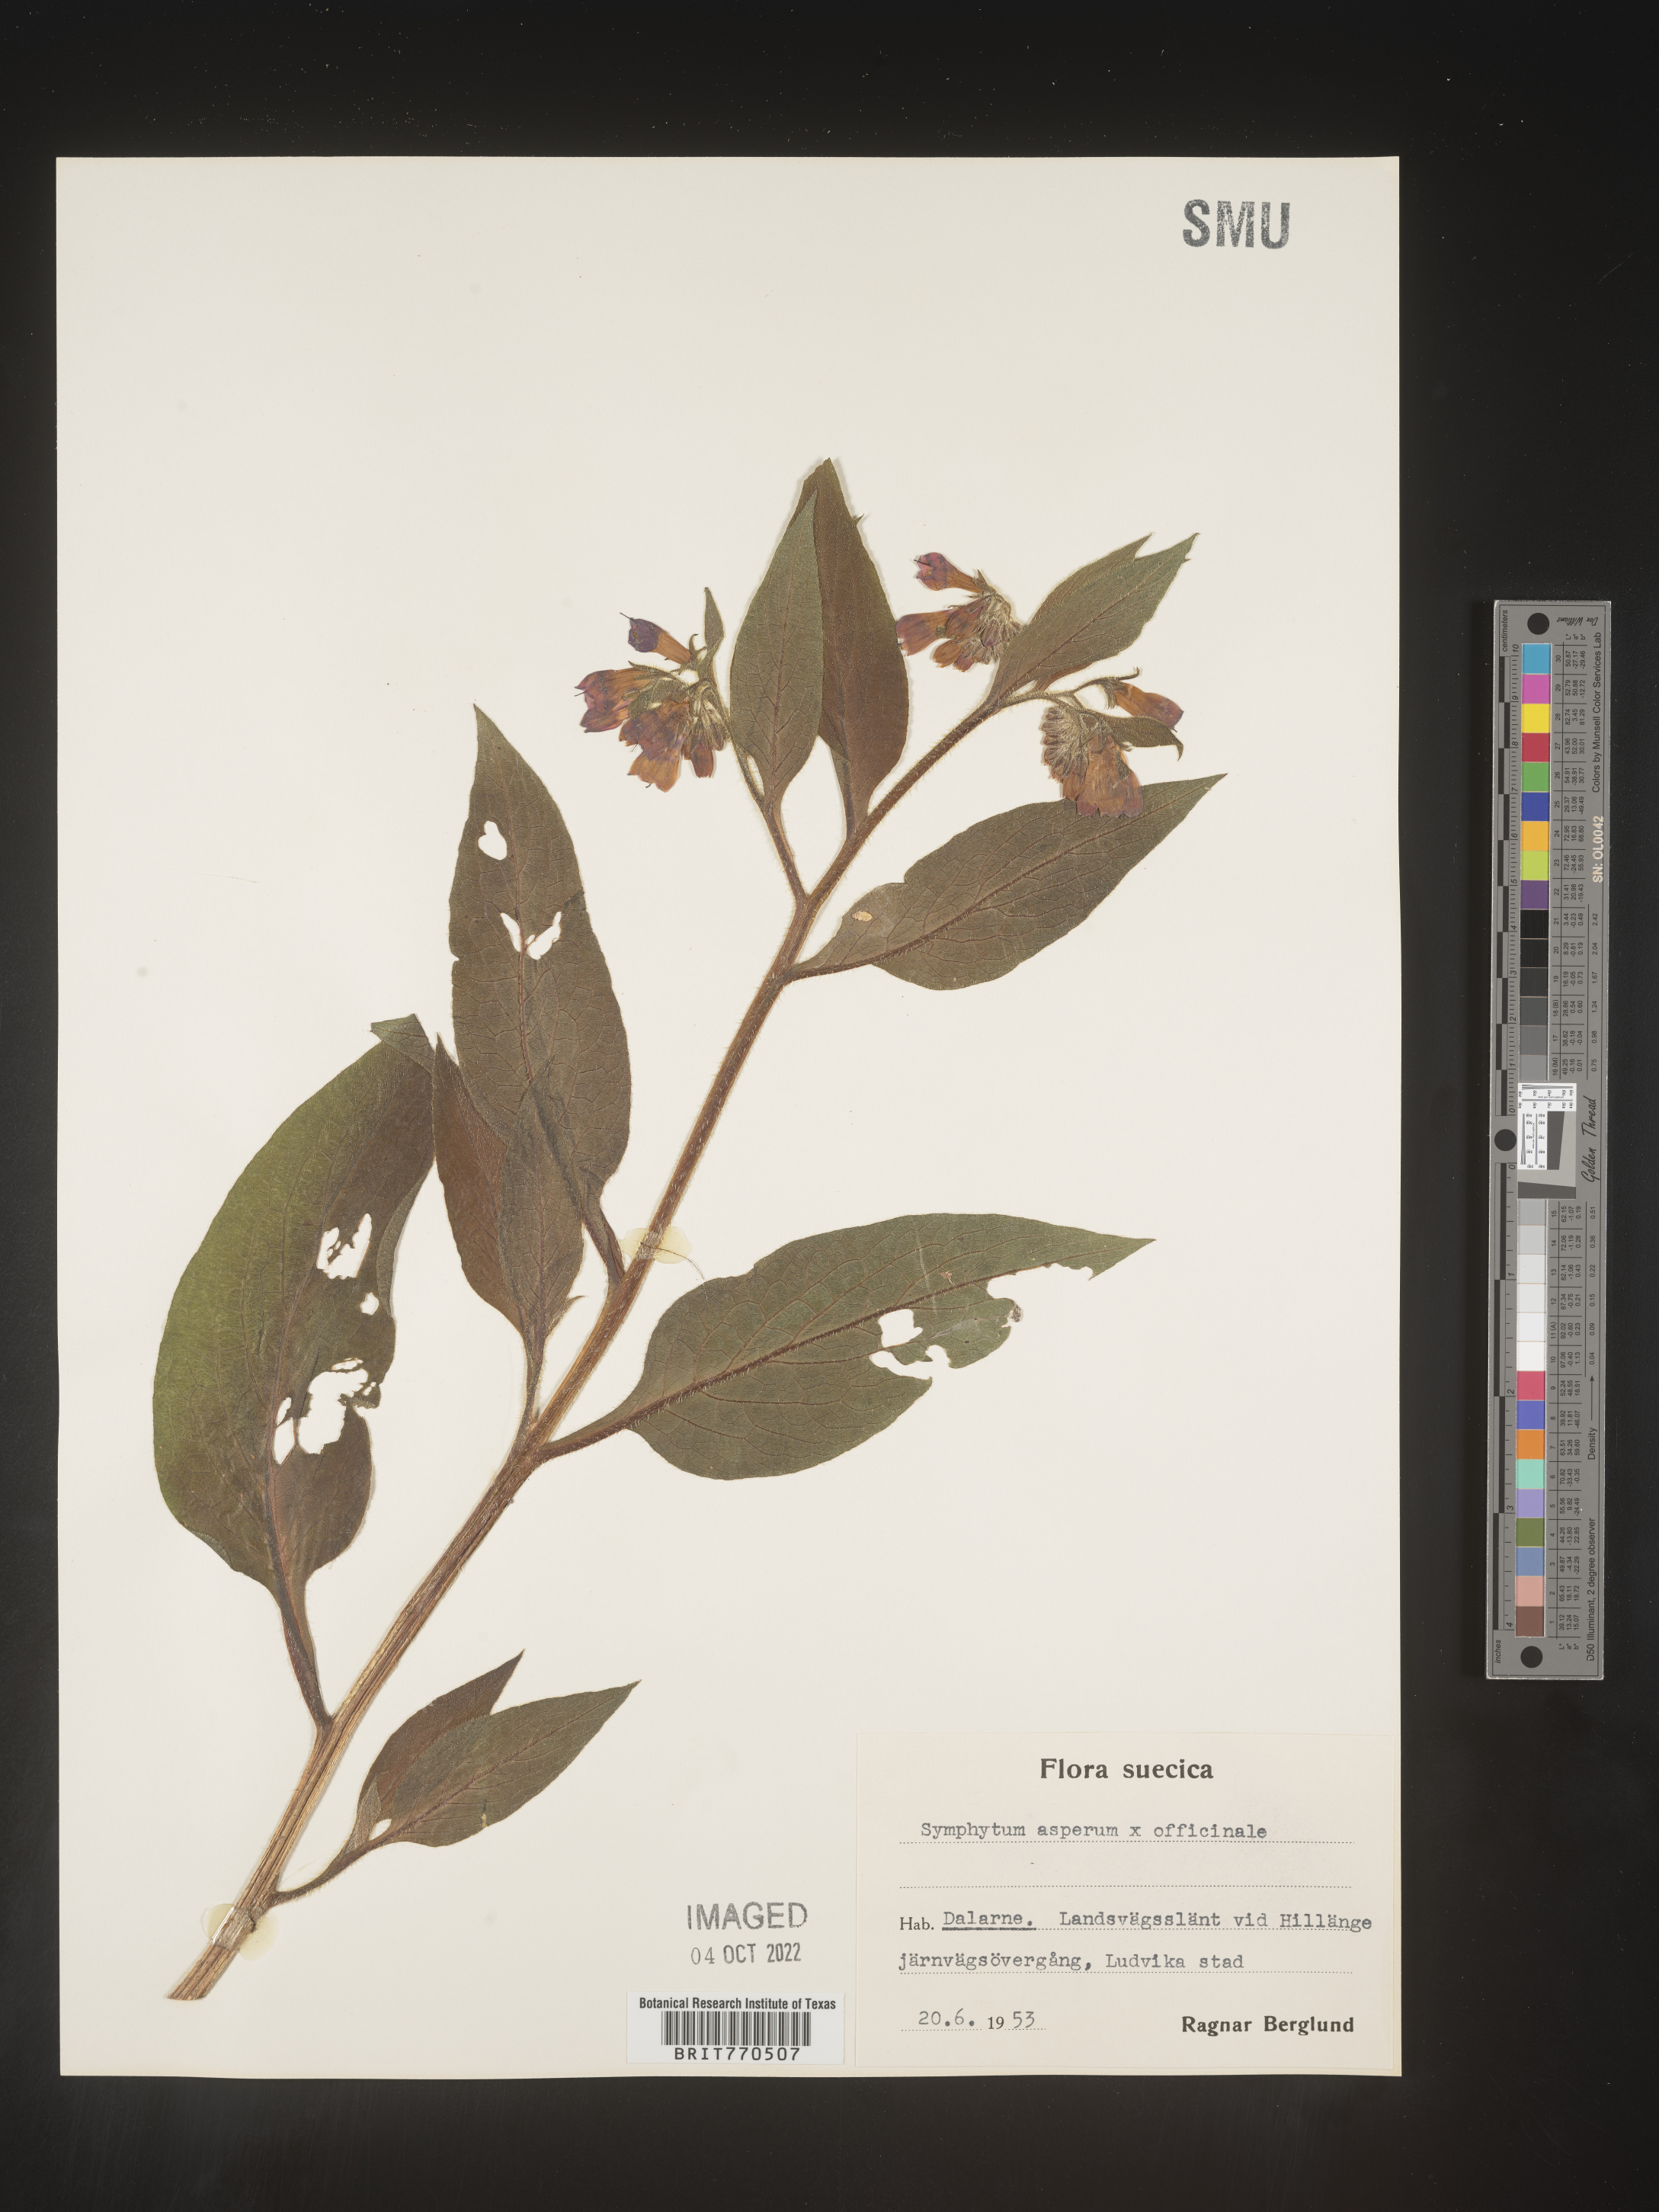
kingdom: Plantae
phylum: Tracheophyta
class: Magnoliopsida
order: Boraginales
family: Boraginaceae
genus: Symphytum
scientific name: Symphytum
